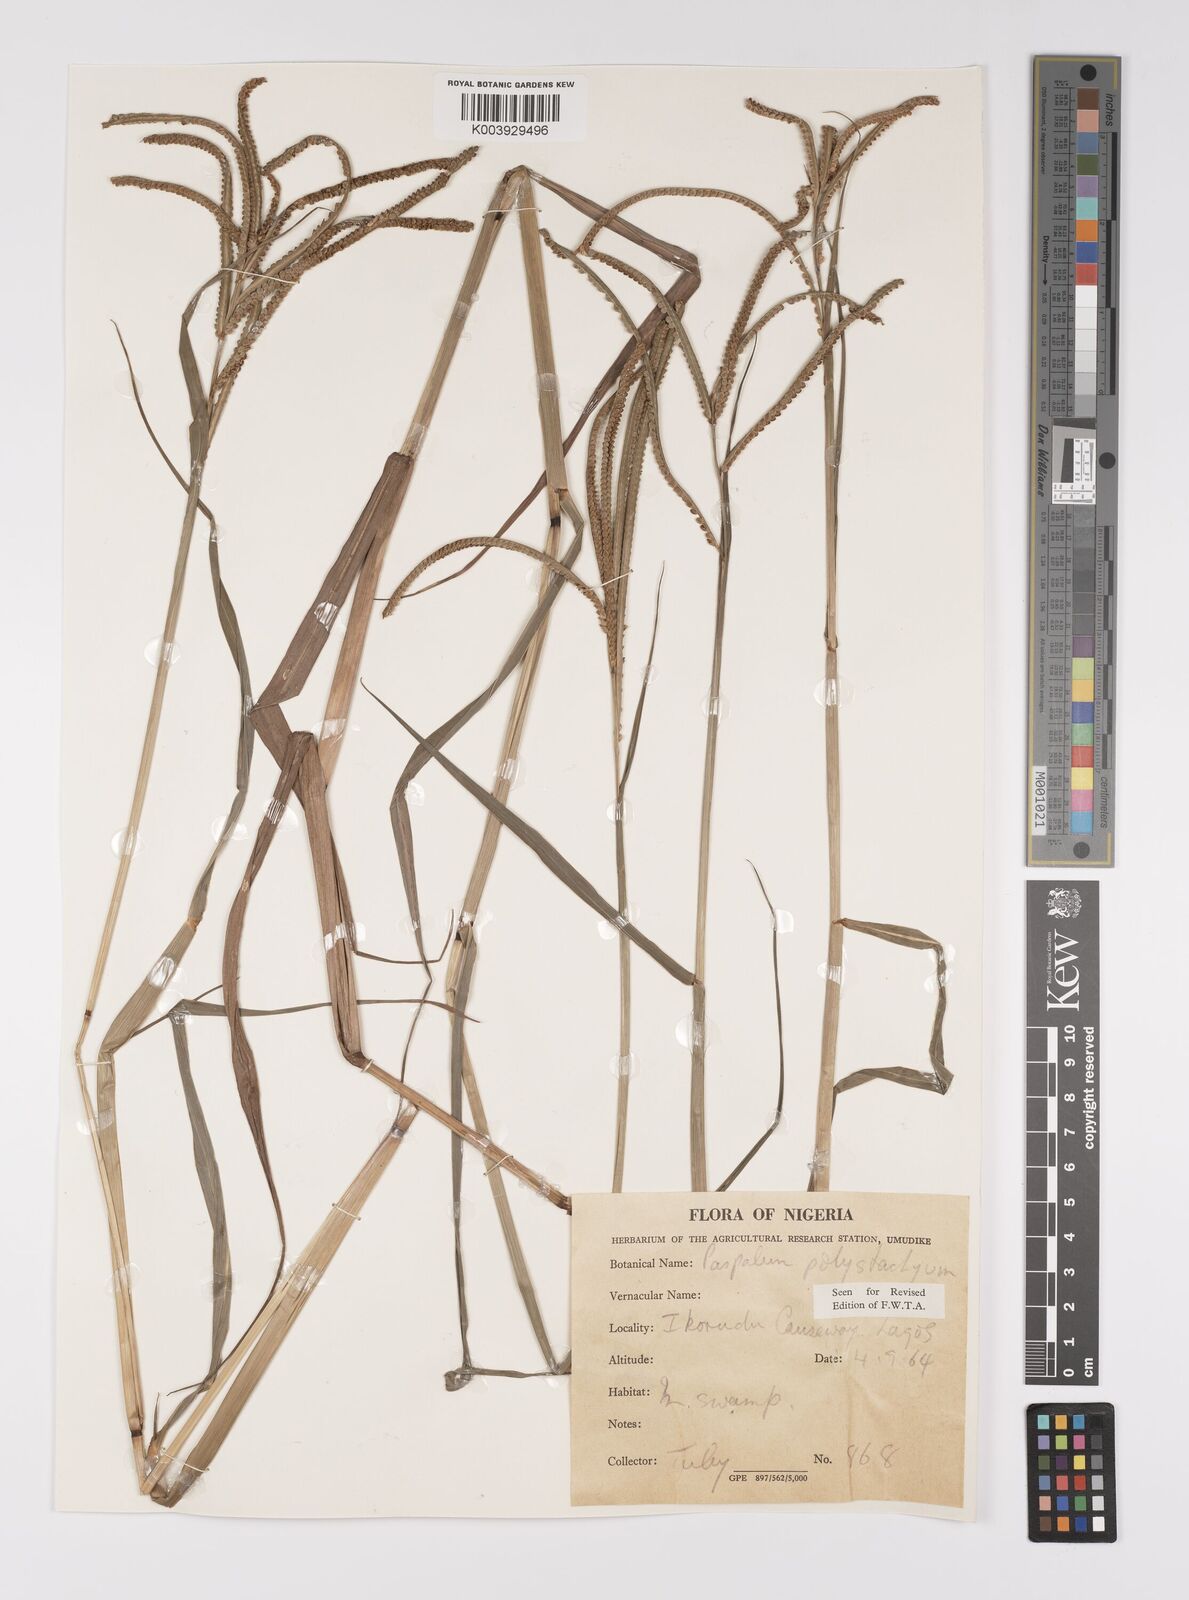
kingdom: Plantae
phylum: Tracheophyta
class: Liliopsida
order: Poales
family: Poaceae
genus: Paspalum
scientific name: Paspalum scrobiculatum
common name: Kodo millet
